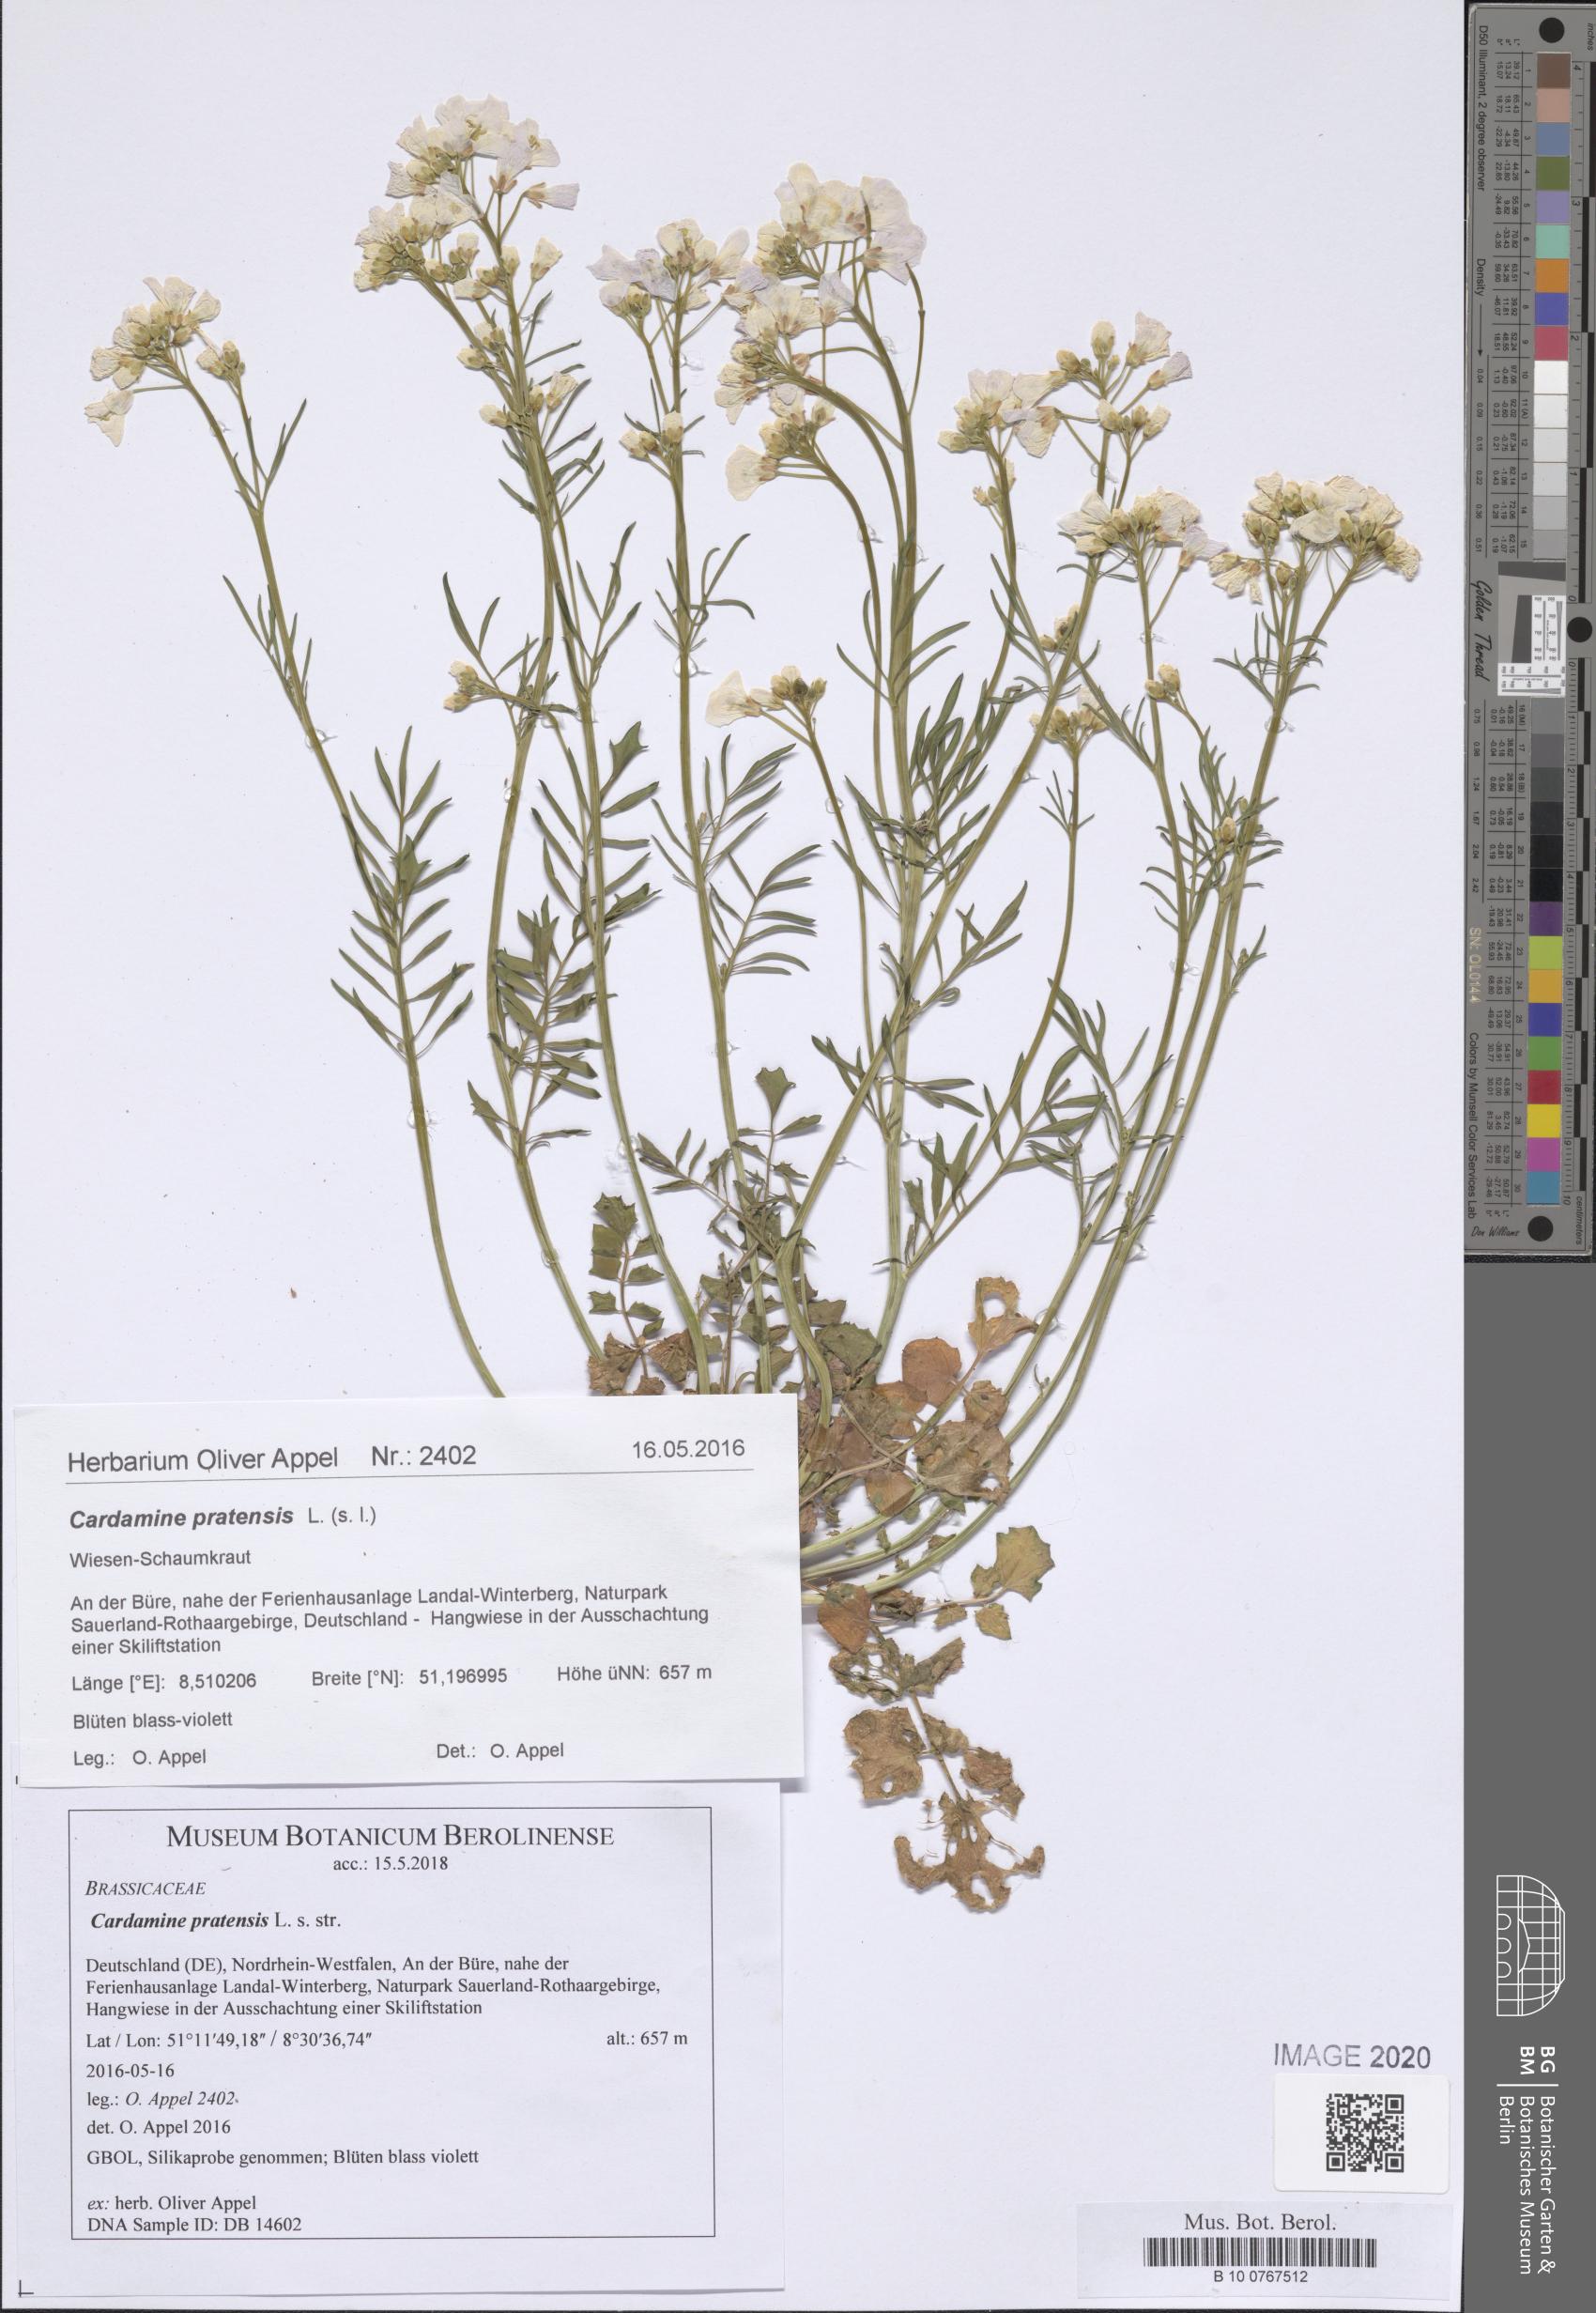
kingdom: Plantae
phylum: Tracheophyta
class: Magnoliopsida
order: Brassicales
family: Brassicaceae
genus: Cardamine
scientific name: Cardamine pratensis
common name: Cuckoo flower
